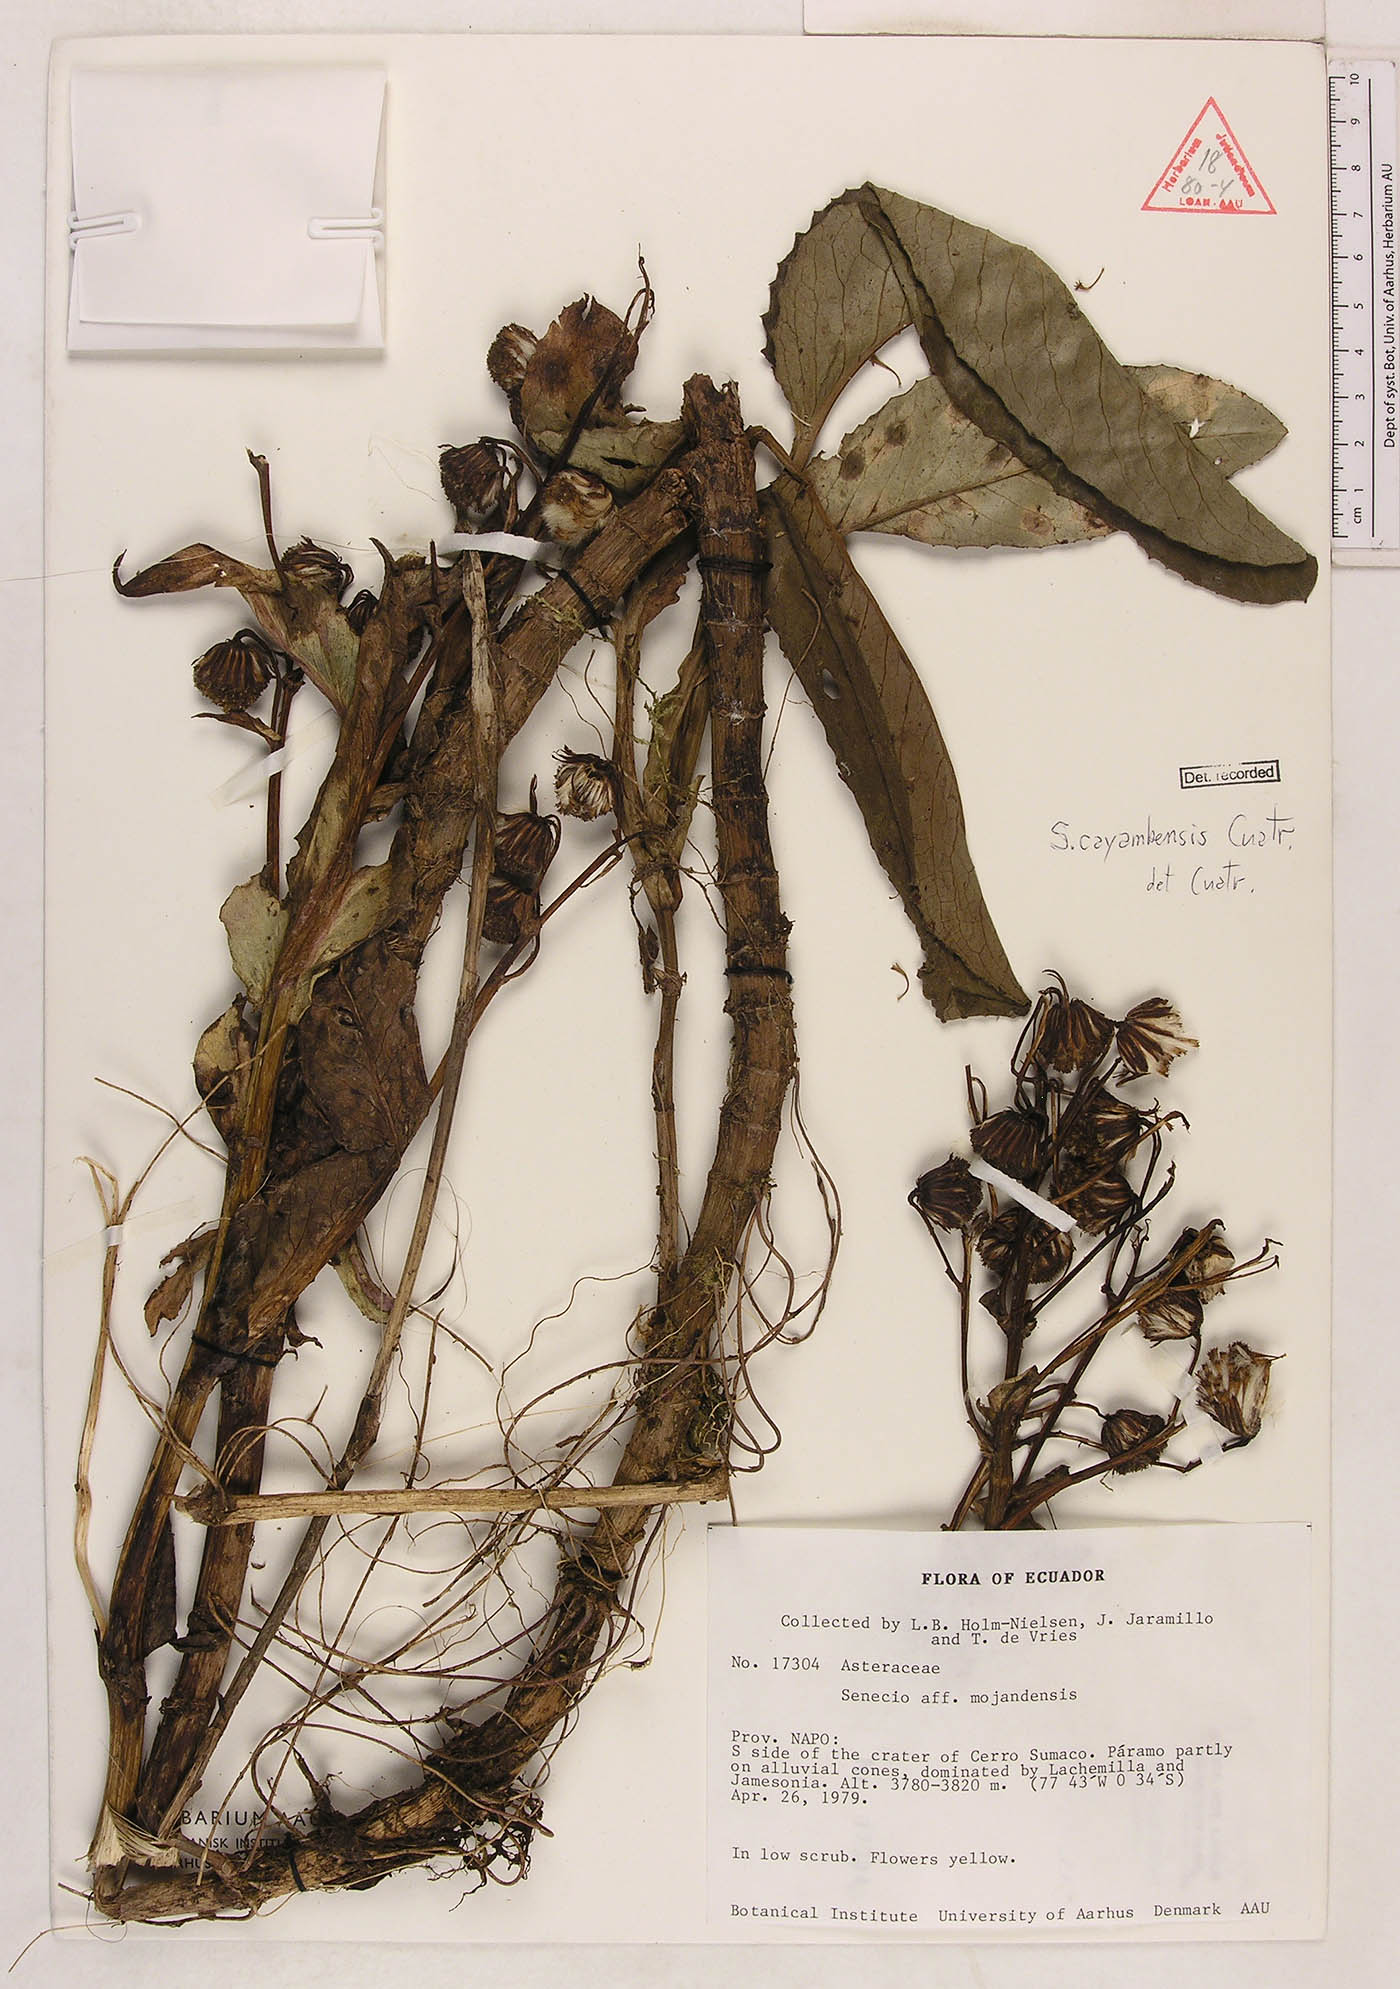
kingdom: Plantae
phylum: Tracheophyta
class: Magnoliopsida
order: Asterales
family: Asteraceae
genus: Aetheolaena
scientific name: Aetheolaena mojandensis
